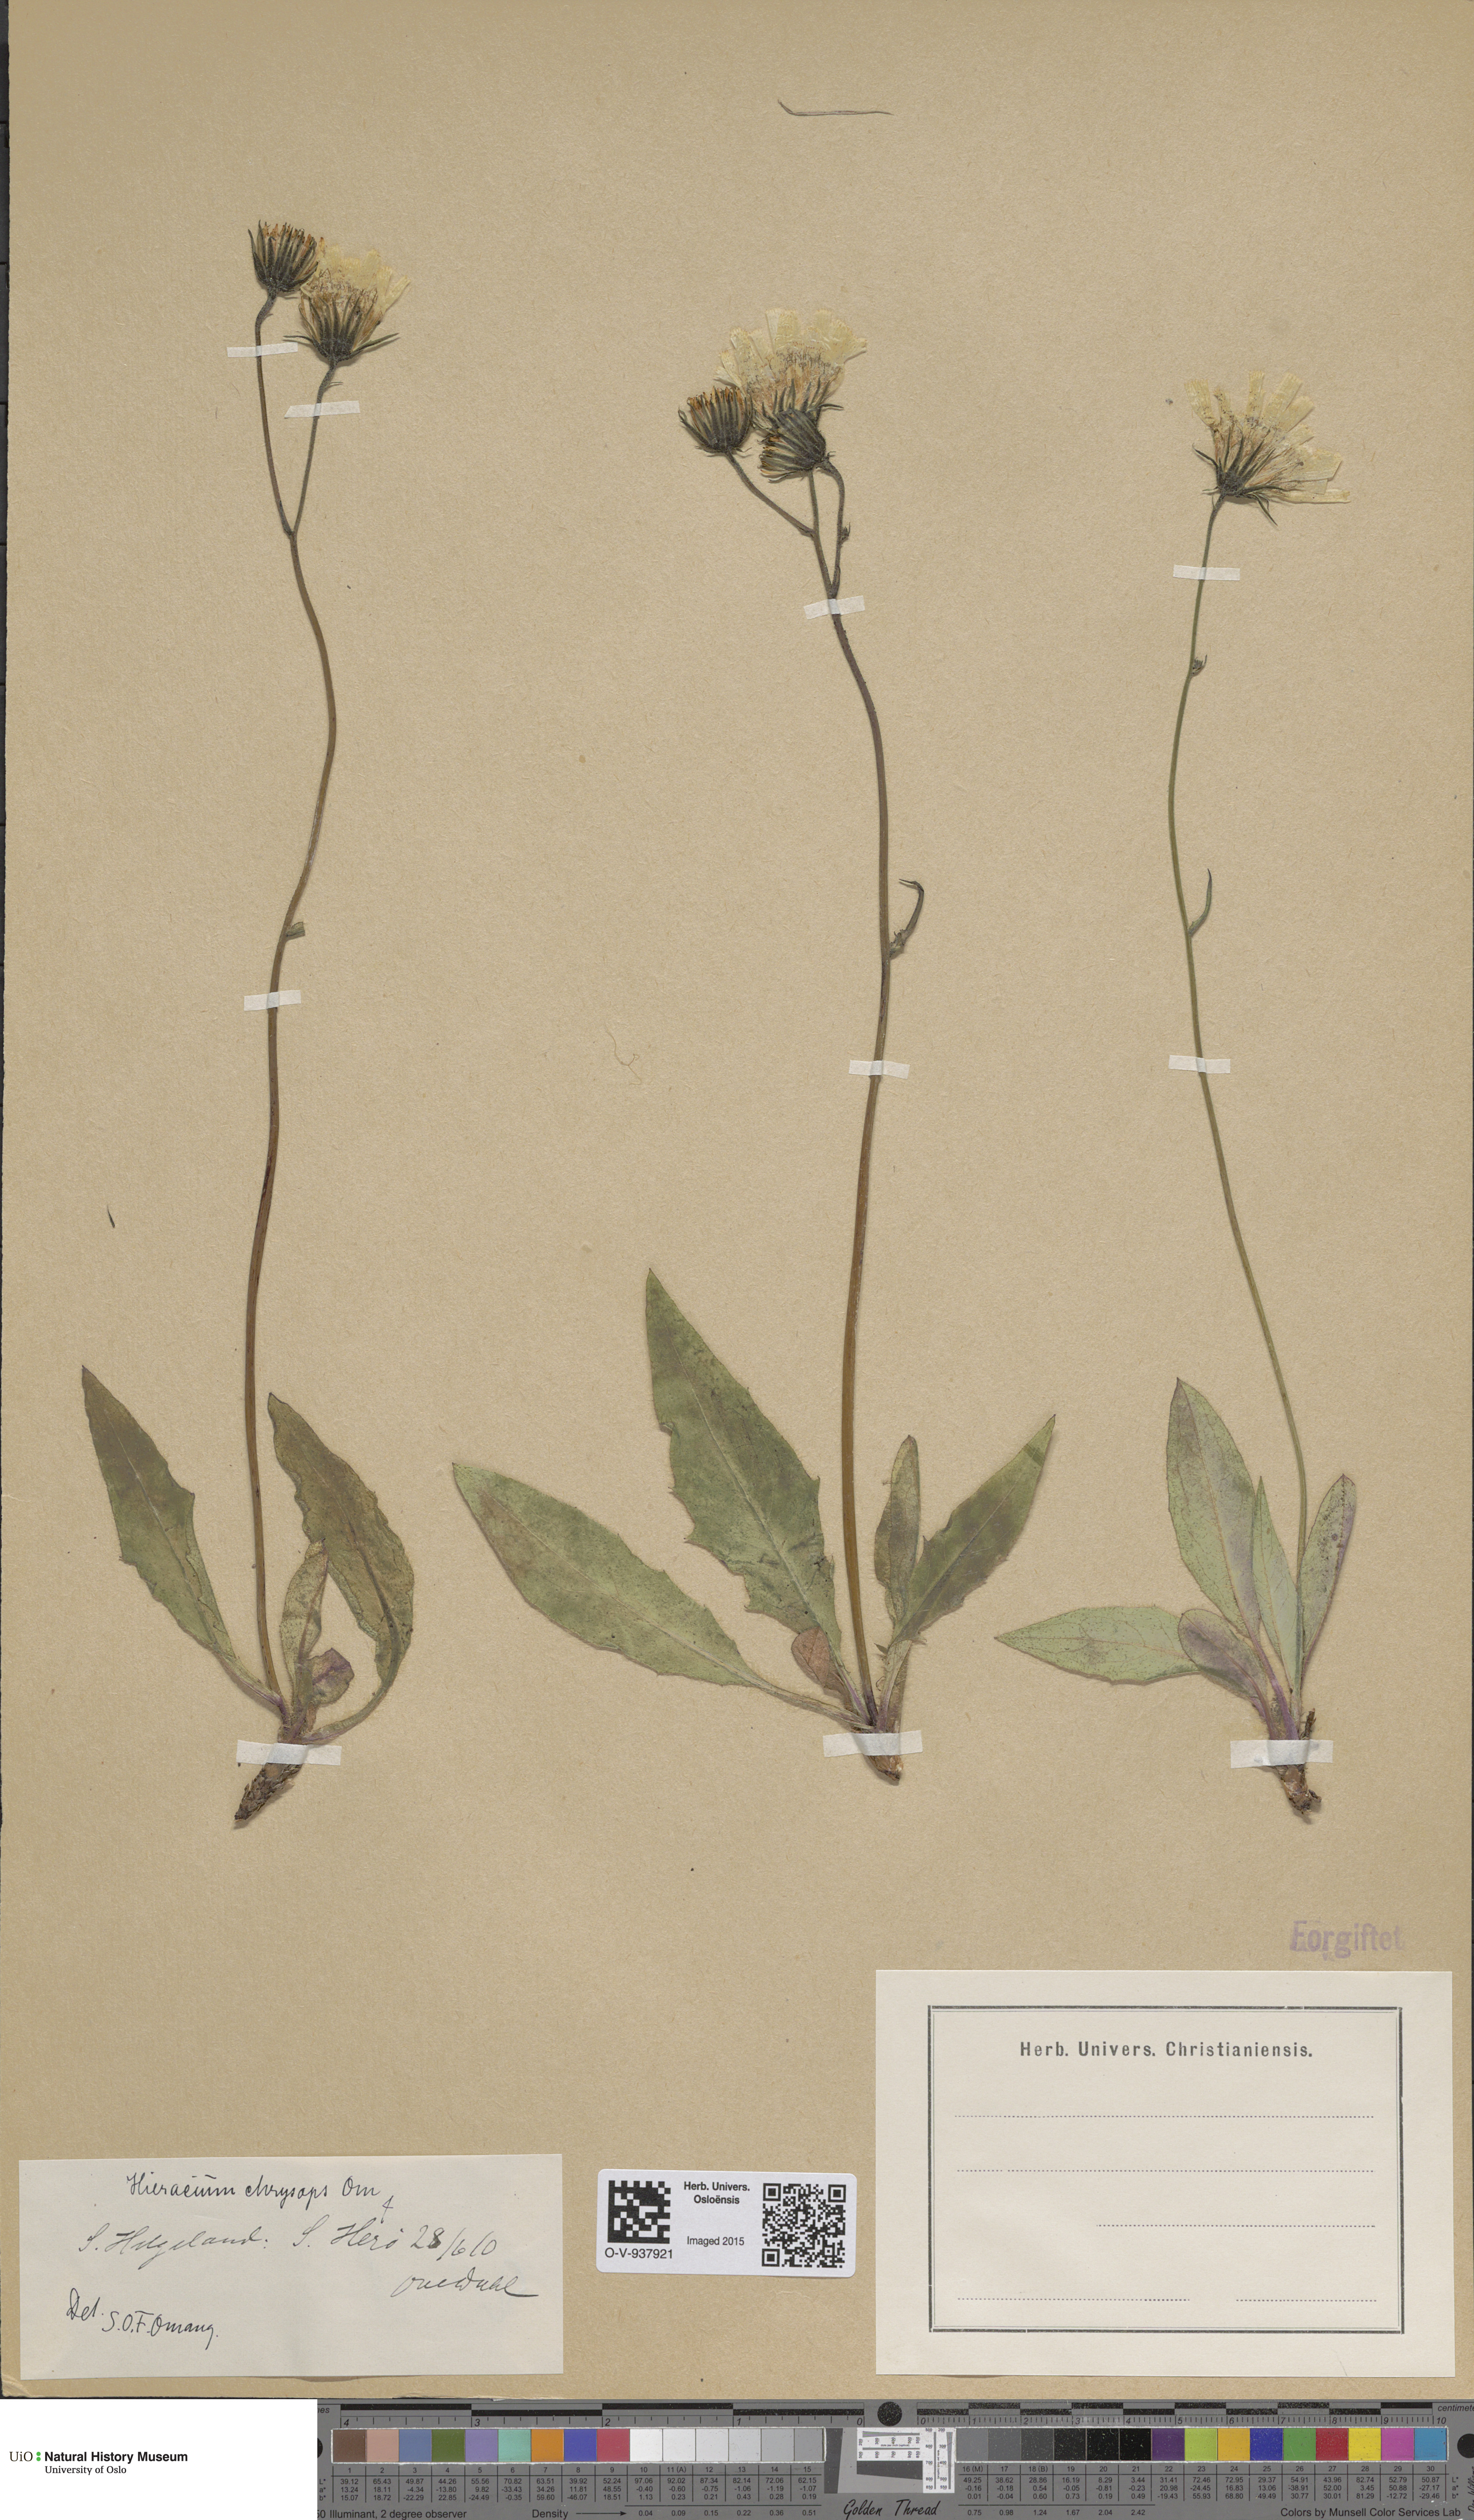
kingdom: Plantae
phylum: Tracheophyta
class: Magnoliopsida
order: Asterales
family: Asteraceae
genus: Hieracium
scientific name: Hieracium
